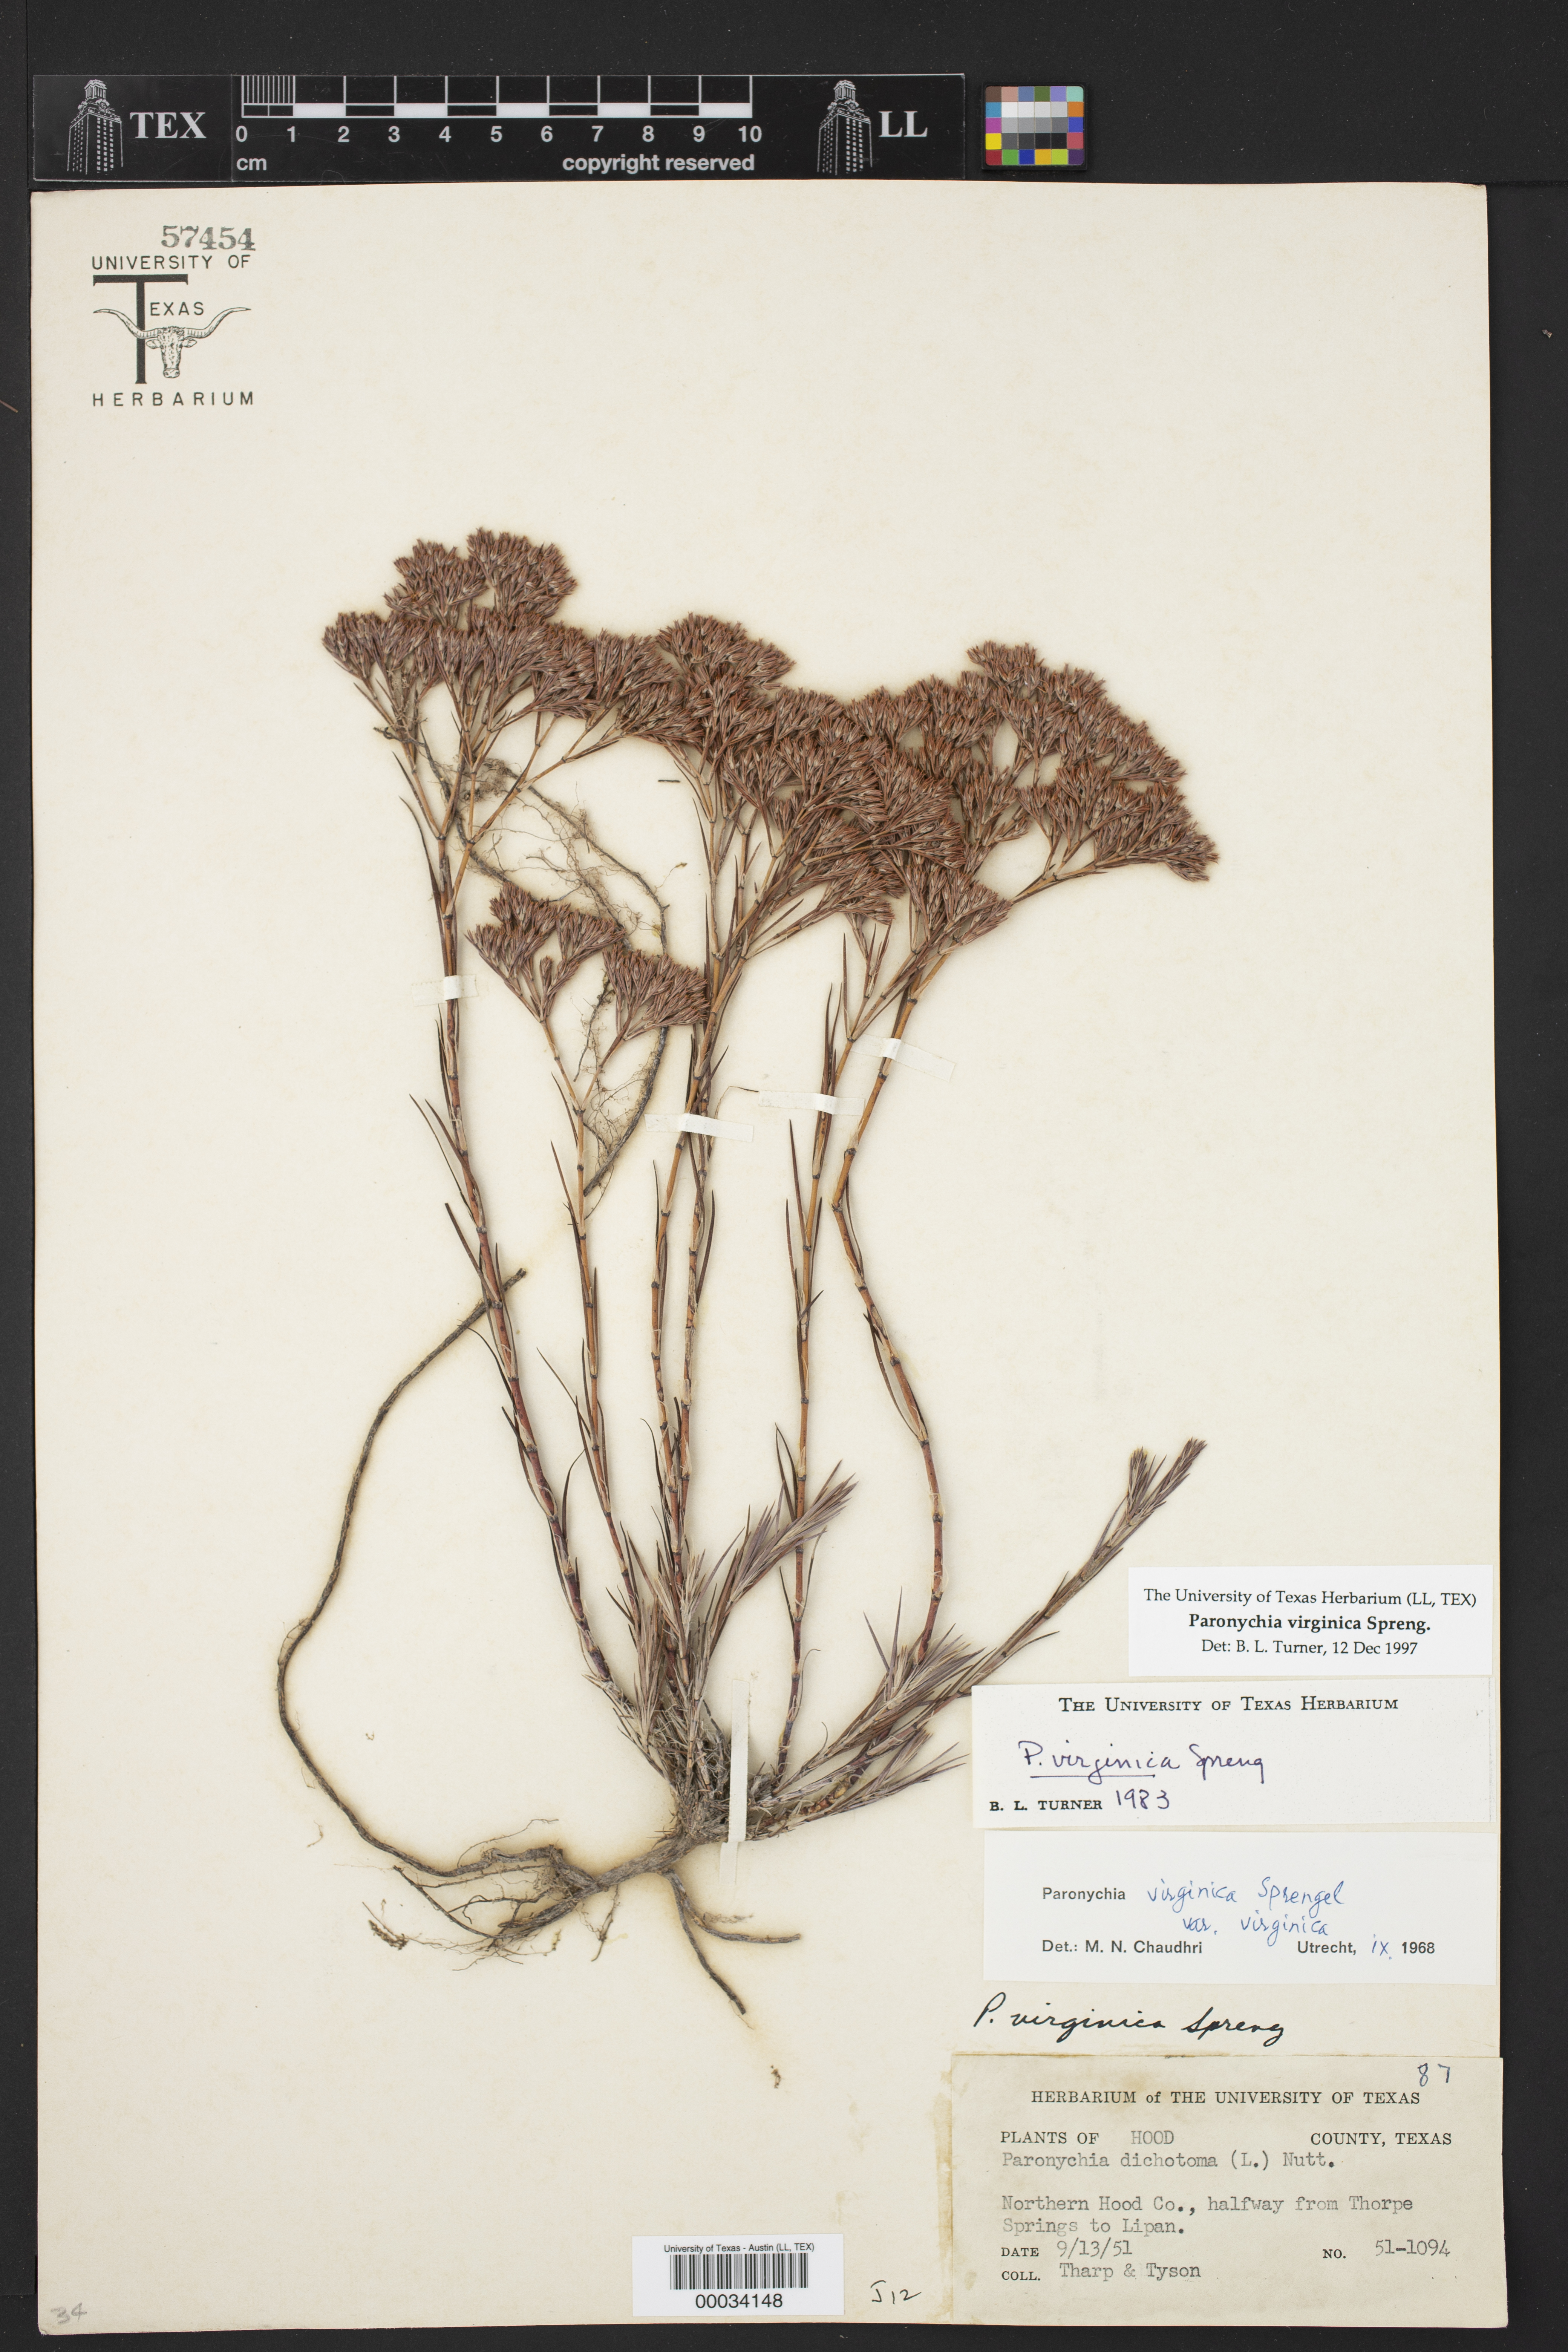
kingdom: Plantae
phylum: Tracheophyta
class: Magnoliopsida
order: Caryophyllales
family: Caryophyllaceae
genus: Paronychia
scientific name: Paronychia virginica
